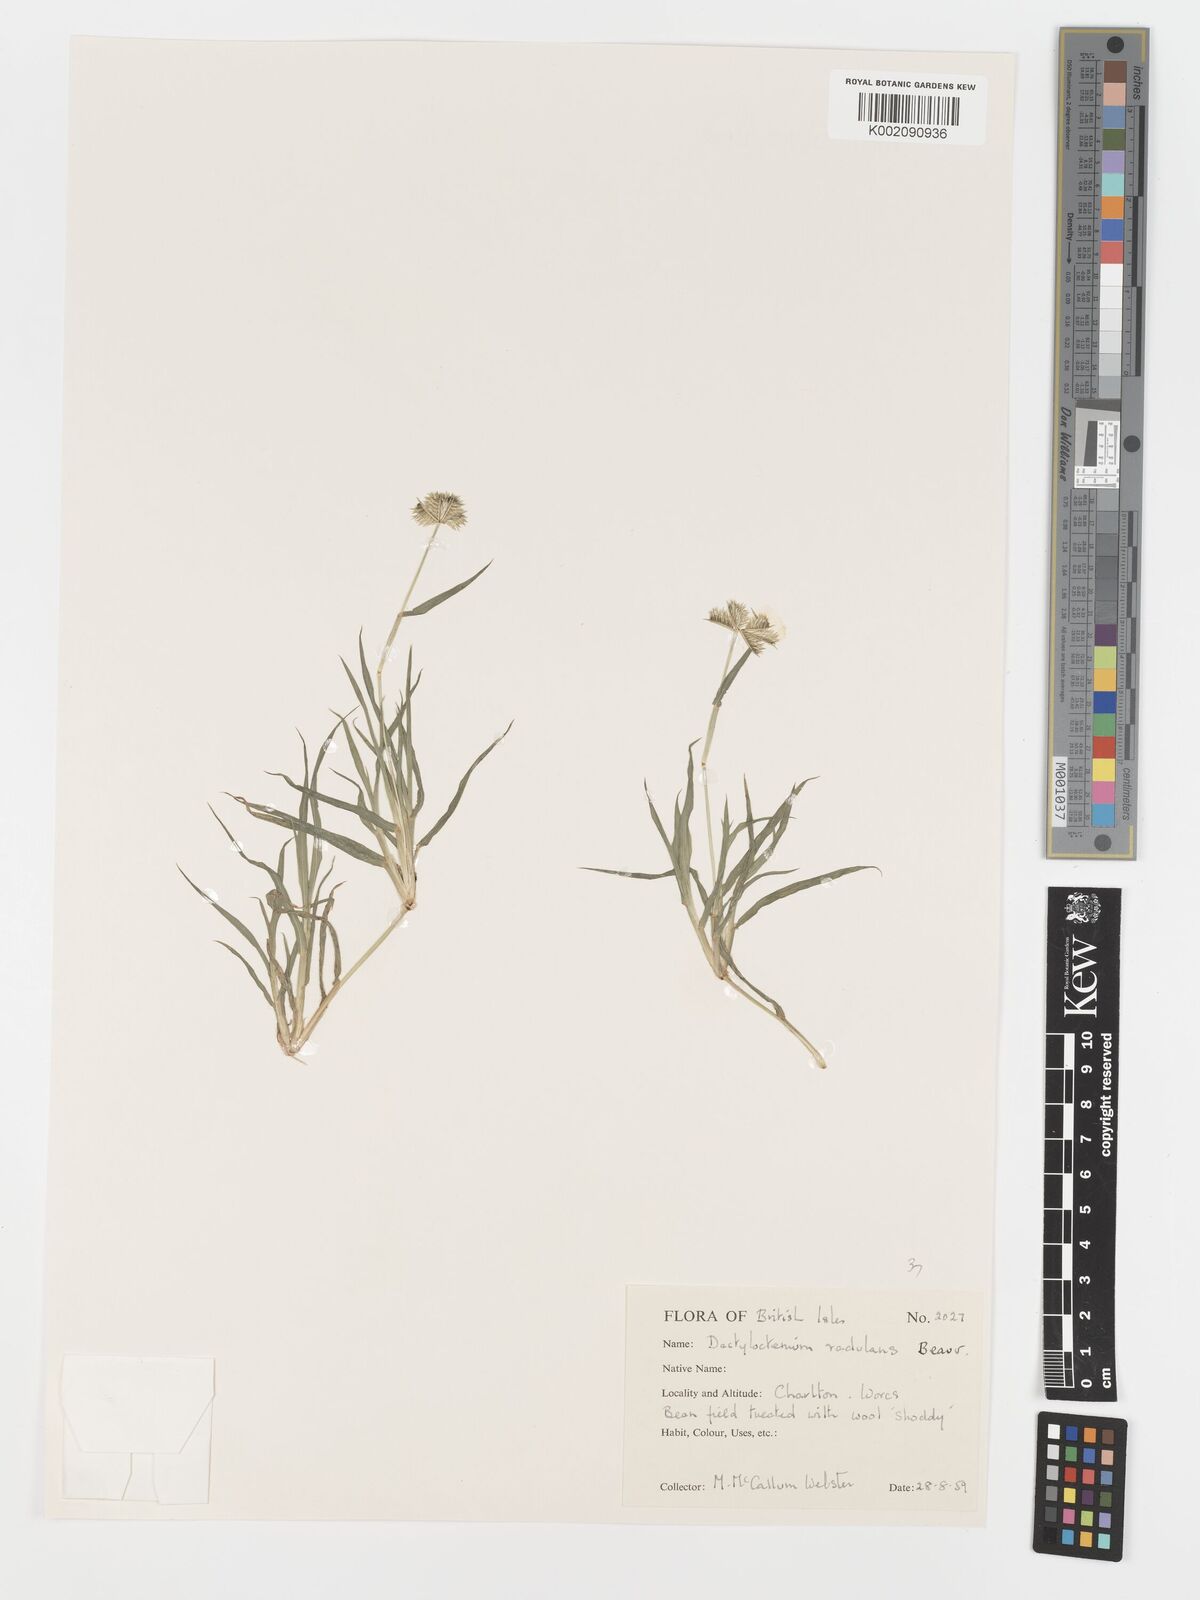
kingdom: Plantae
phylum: Tracheophyta
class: Liliopsida
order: Poales
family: Poaceae
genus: Dactyloctenium
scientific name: Dactyloctenium radulans
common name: Button-grass
